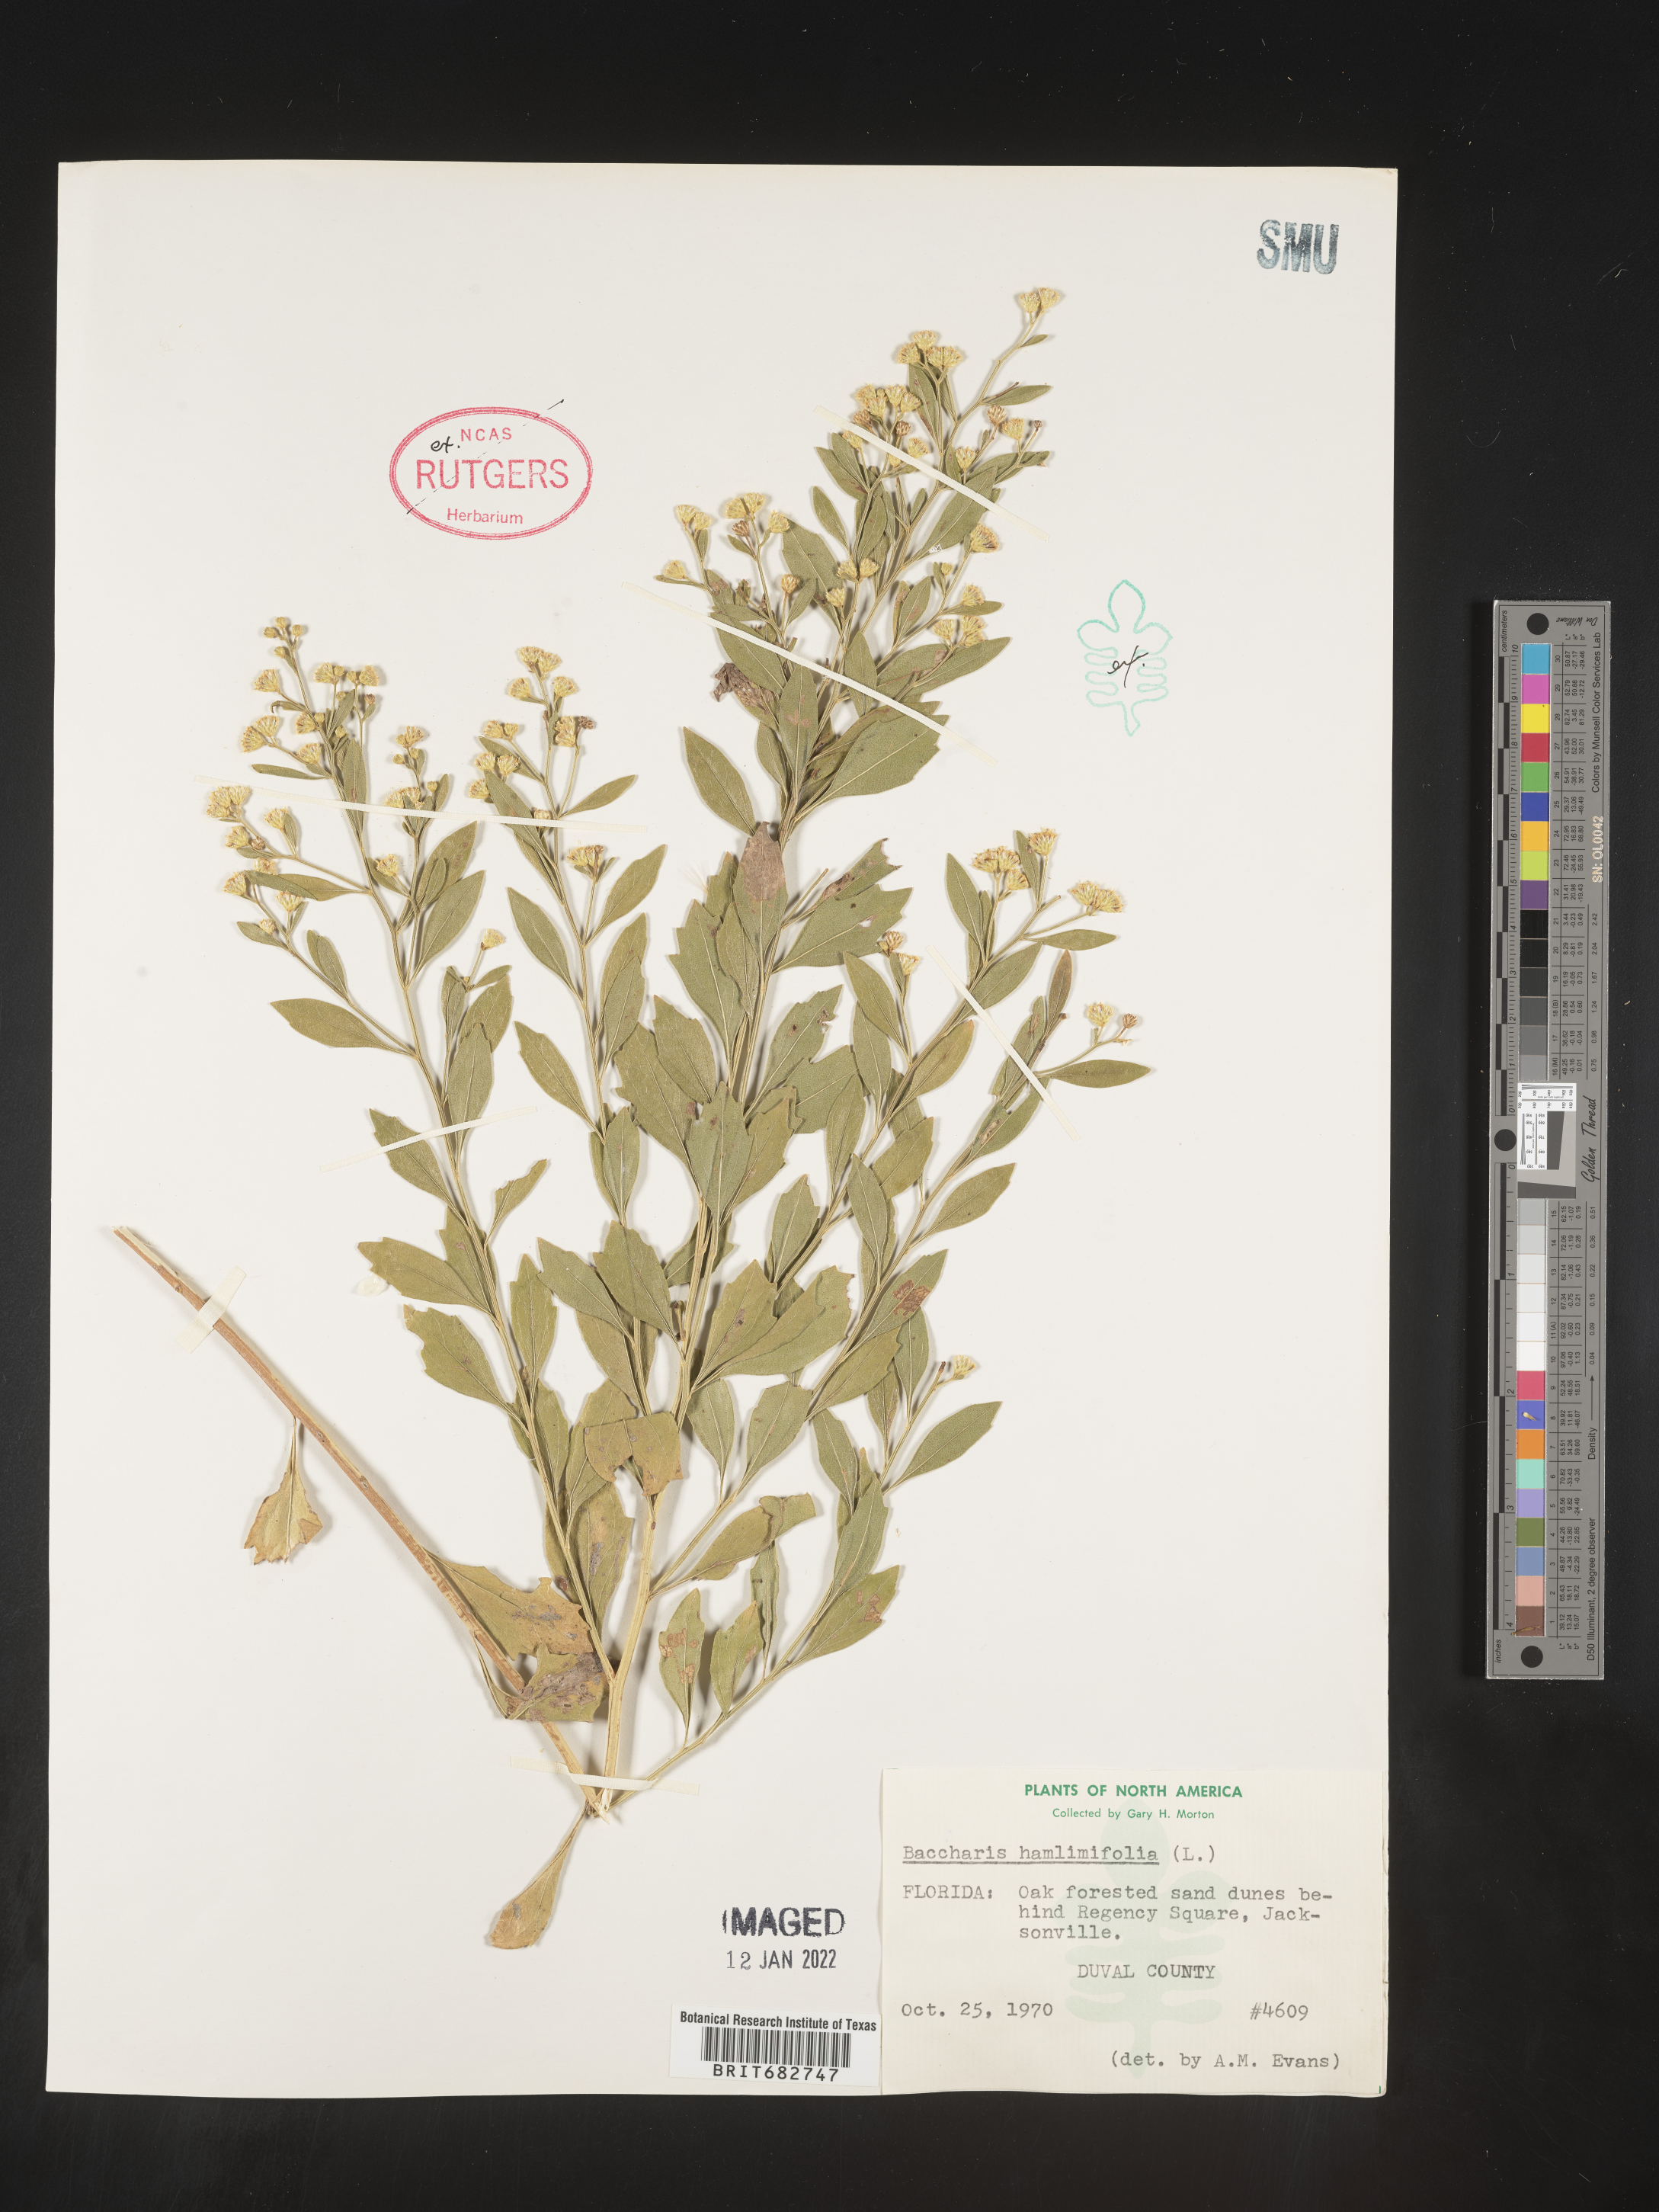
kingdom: Plantae
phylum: Tracheophyta
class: Magnoliopsida
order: Asterales
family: Asteraceae
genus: Nidorella
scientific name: Nidorella ivifolia
